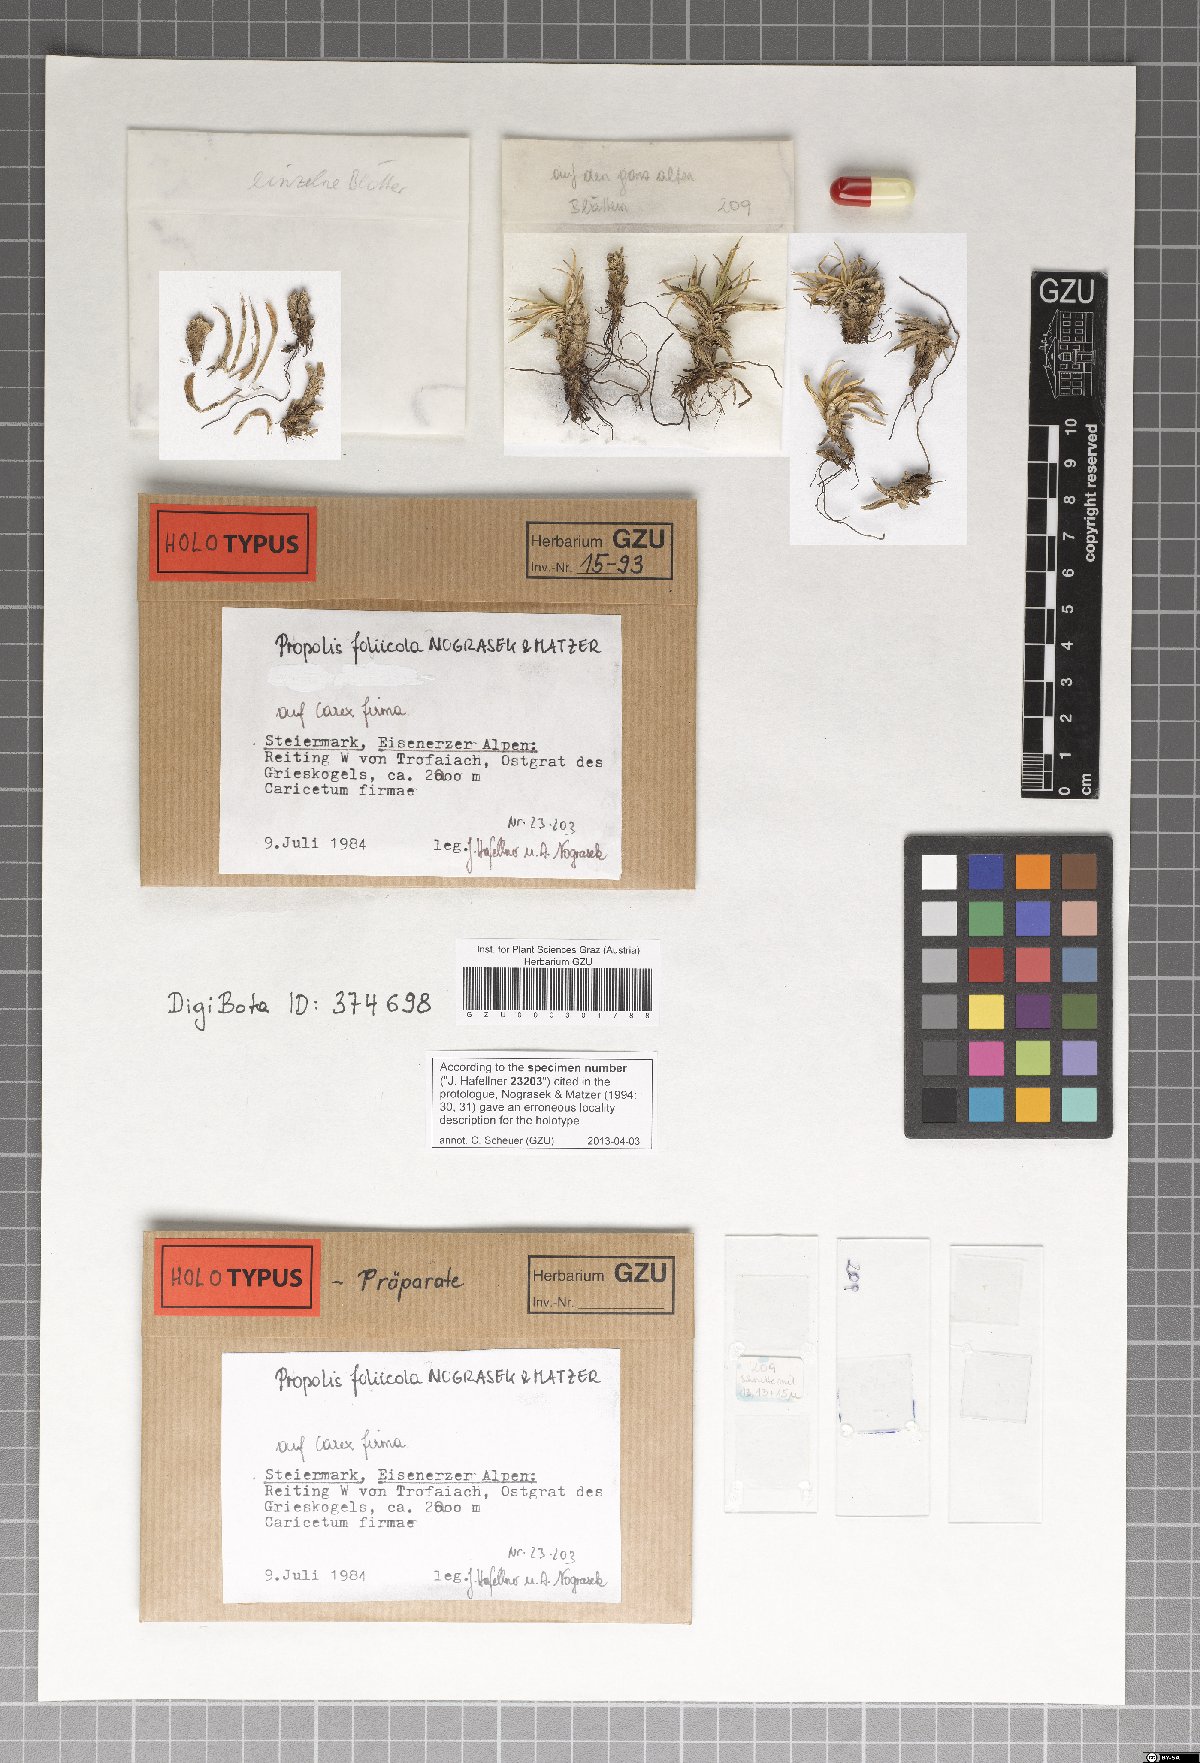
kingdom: Fungi
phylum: Ascomycota
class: Leotiomycetes
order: Chaetomellales
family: Marthamycetaceae
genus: Marthamyces
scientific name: Marthamyces foliicola
